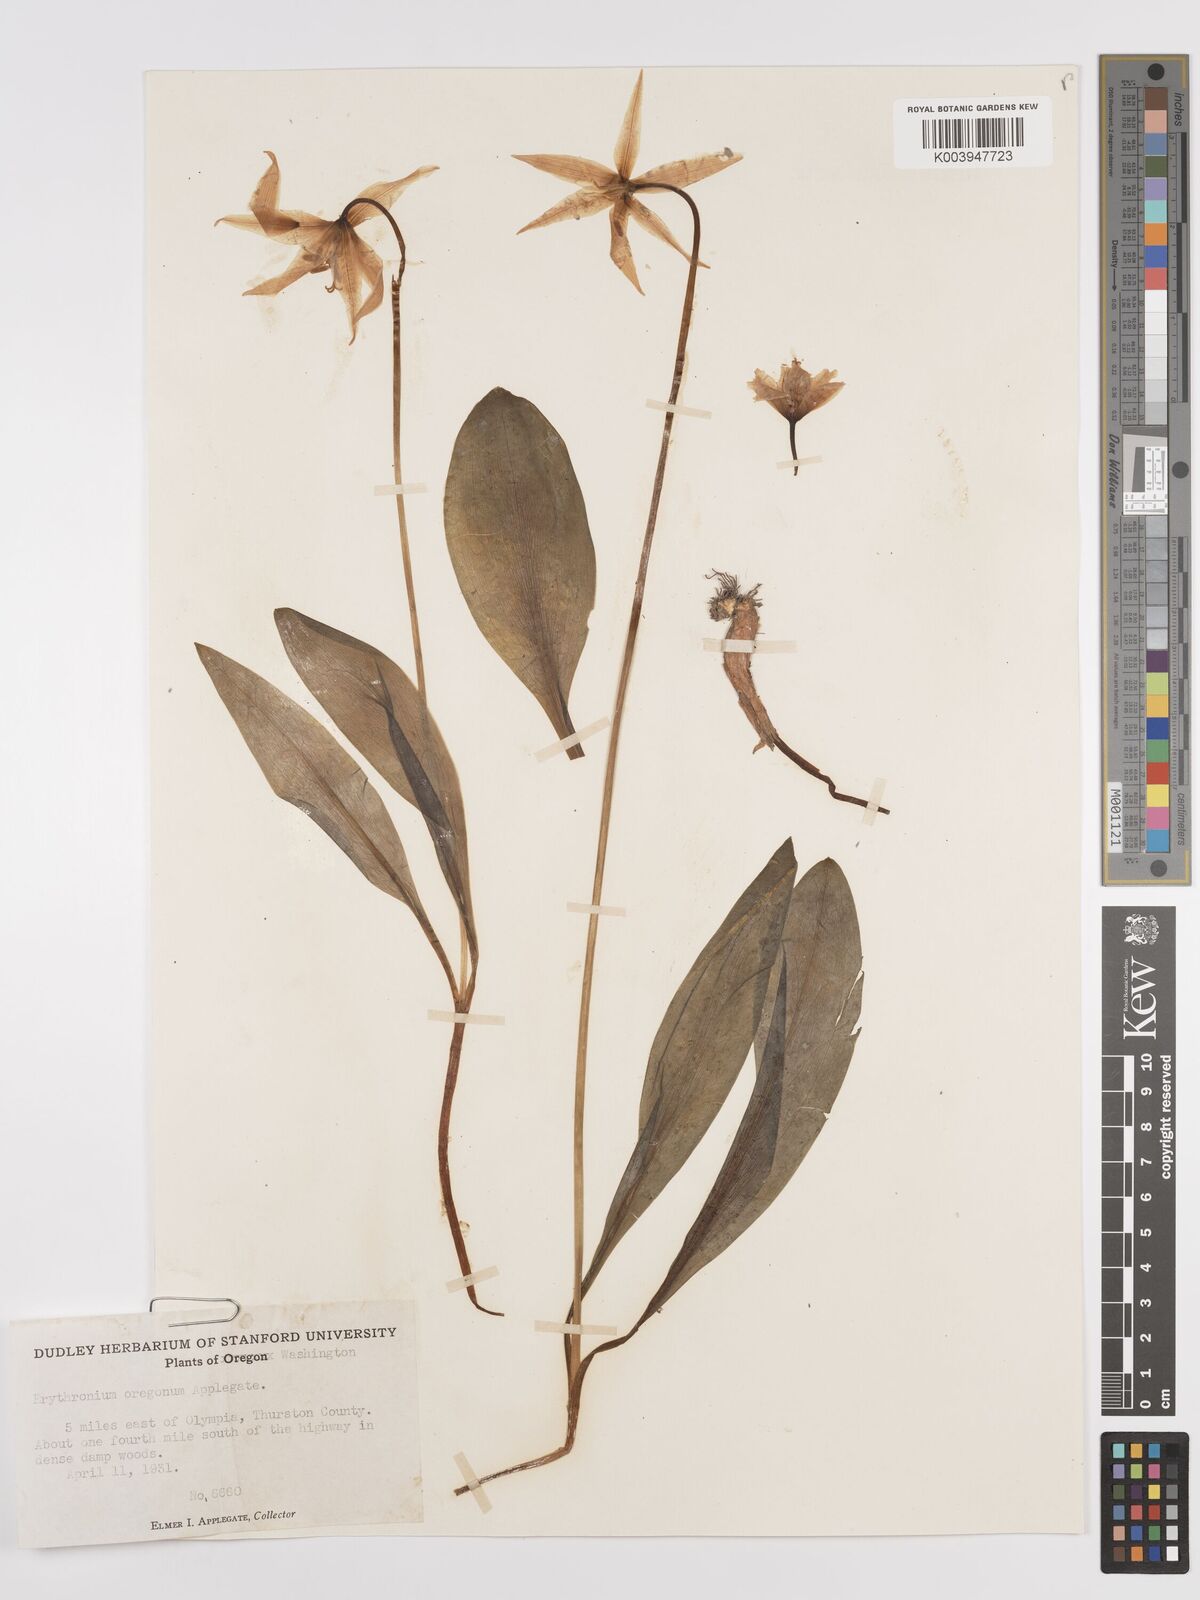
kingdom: Plantae
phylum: Tracheophyta
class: Liliopsida
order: Liliales
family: Liliaceae
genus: Erythronium
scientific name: Erythronium oregonum
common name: Giant adder's-tongue
